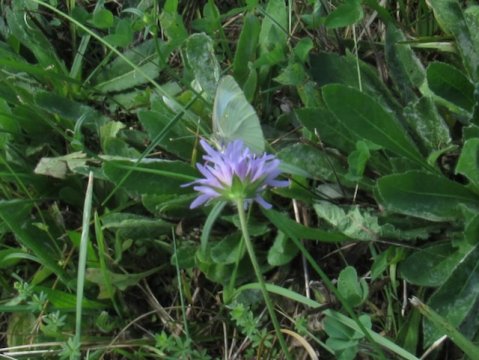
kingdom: Animalia
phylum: Arthropoda
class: Insecta
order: Lepidoptera
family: Pieridae
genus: Pieris
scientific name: Pieris rapae
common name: Cabbage White
